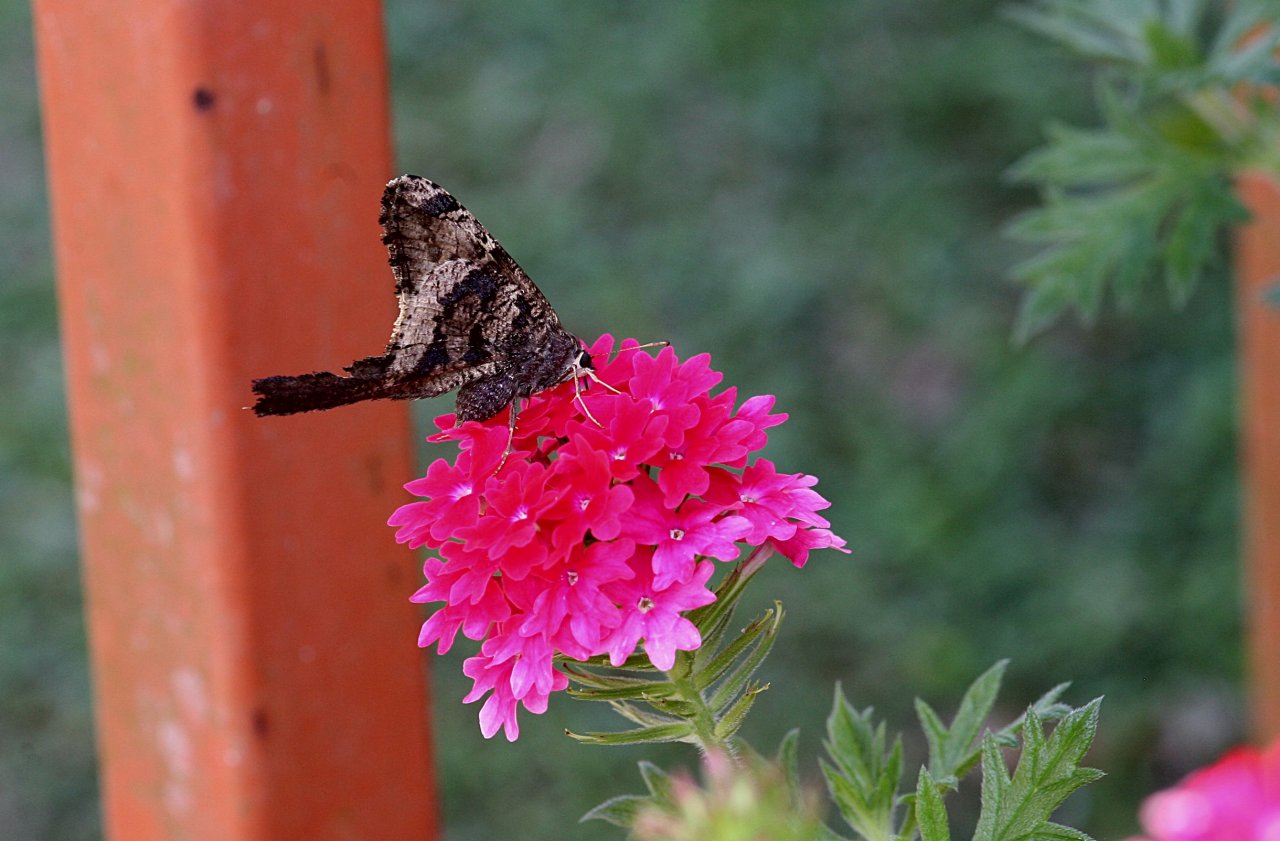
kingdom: Animalia
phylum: Arthropoda
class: Insecta
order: Lepidoptera
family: Hesperiidae
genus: Typhedanus
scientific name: Typhedanus undulatus
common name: Mottled Longtail
